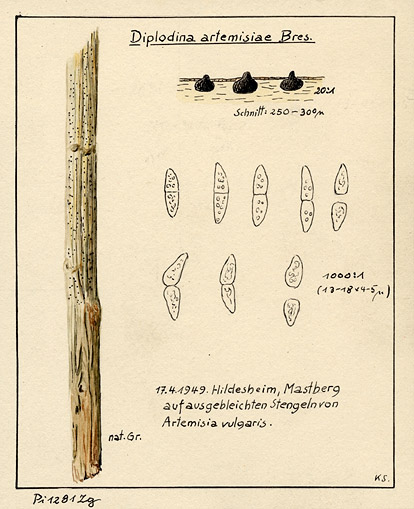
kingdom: Plantae
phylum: Tracheophyta
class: Magnoliopsida
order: Asterales
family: Asteraceae
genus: Artemisia
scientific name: Artemisia vulgaris
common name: Mugwort
